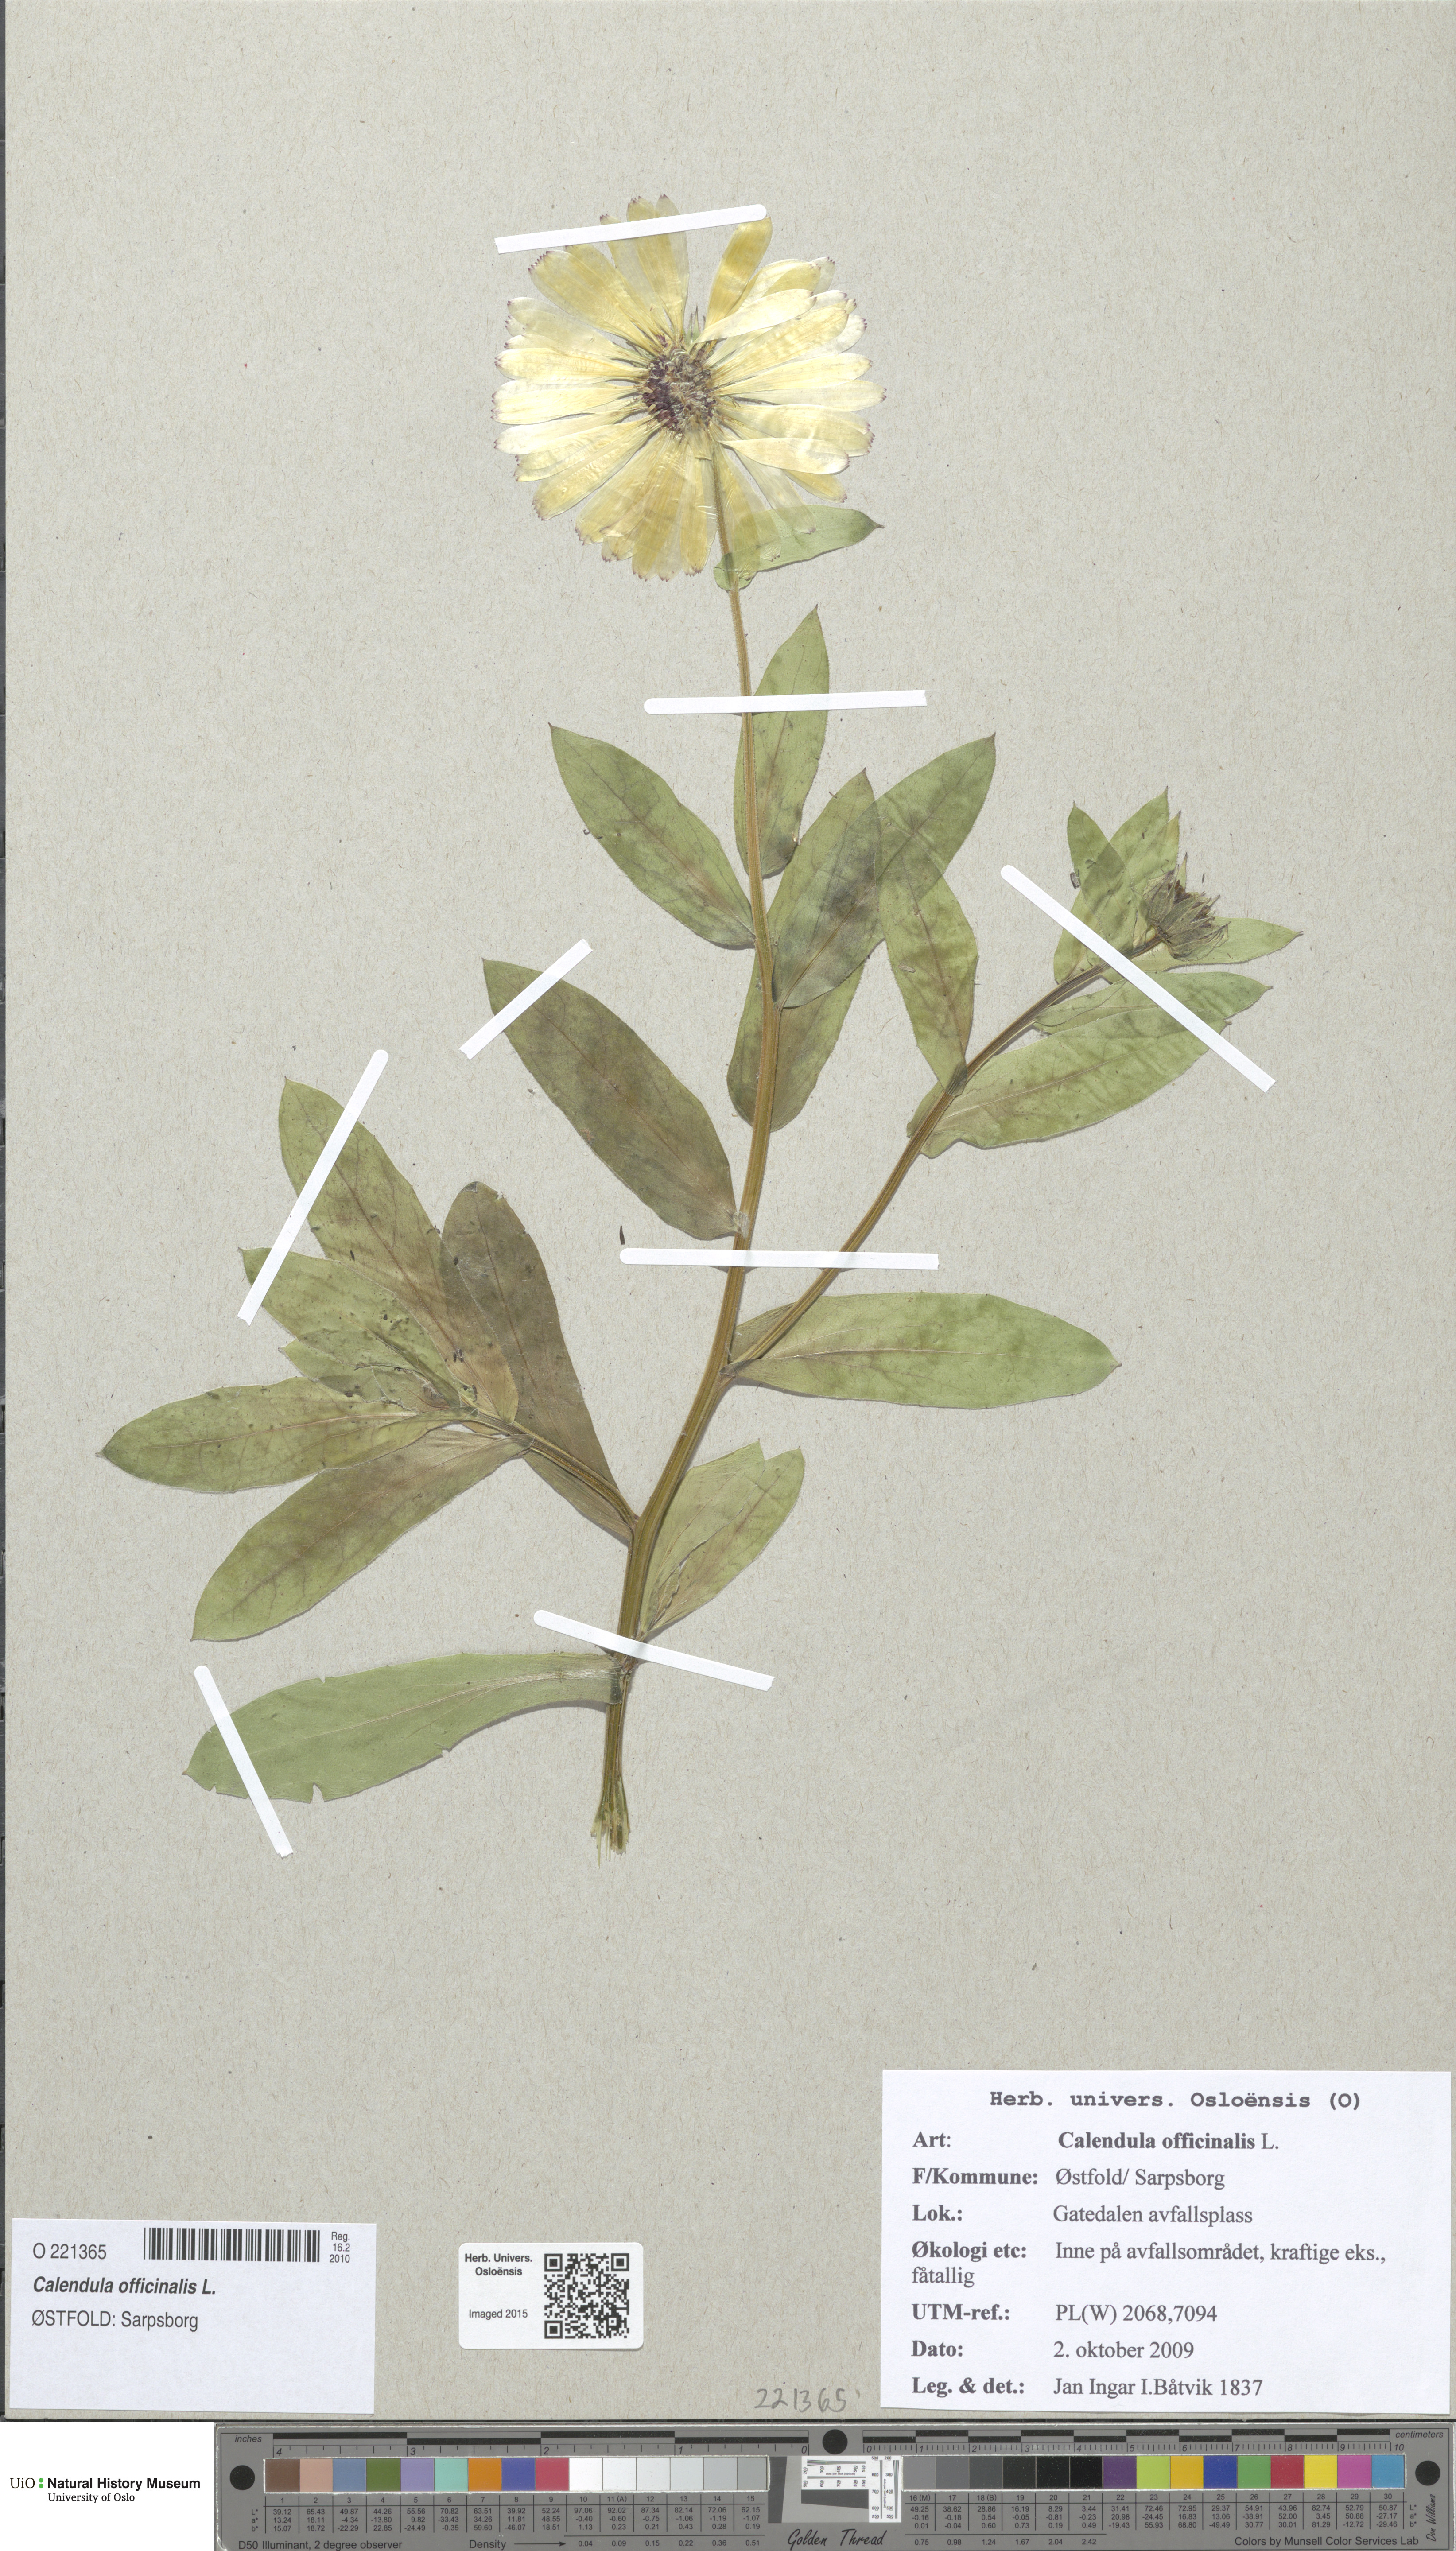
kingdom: Plantae
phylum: Tracheophyta
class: Magnoliopsida
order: Asterales
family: Asteraceae
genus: Calendula
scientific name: Calendula officinalis
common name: Pot marigold
